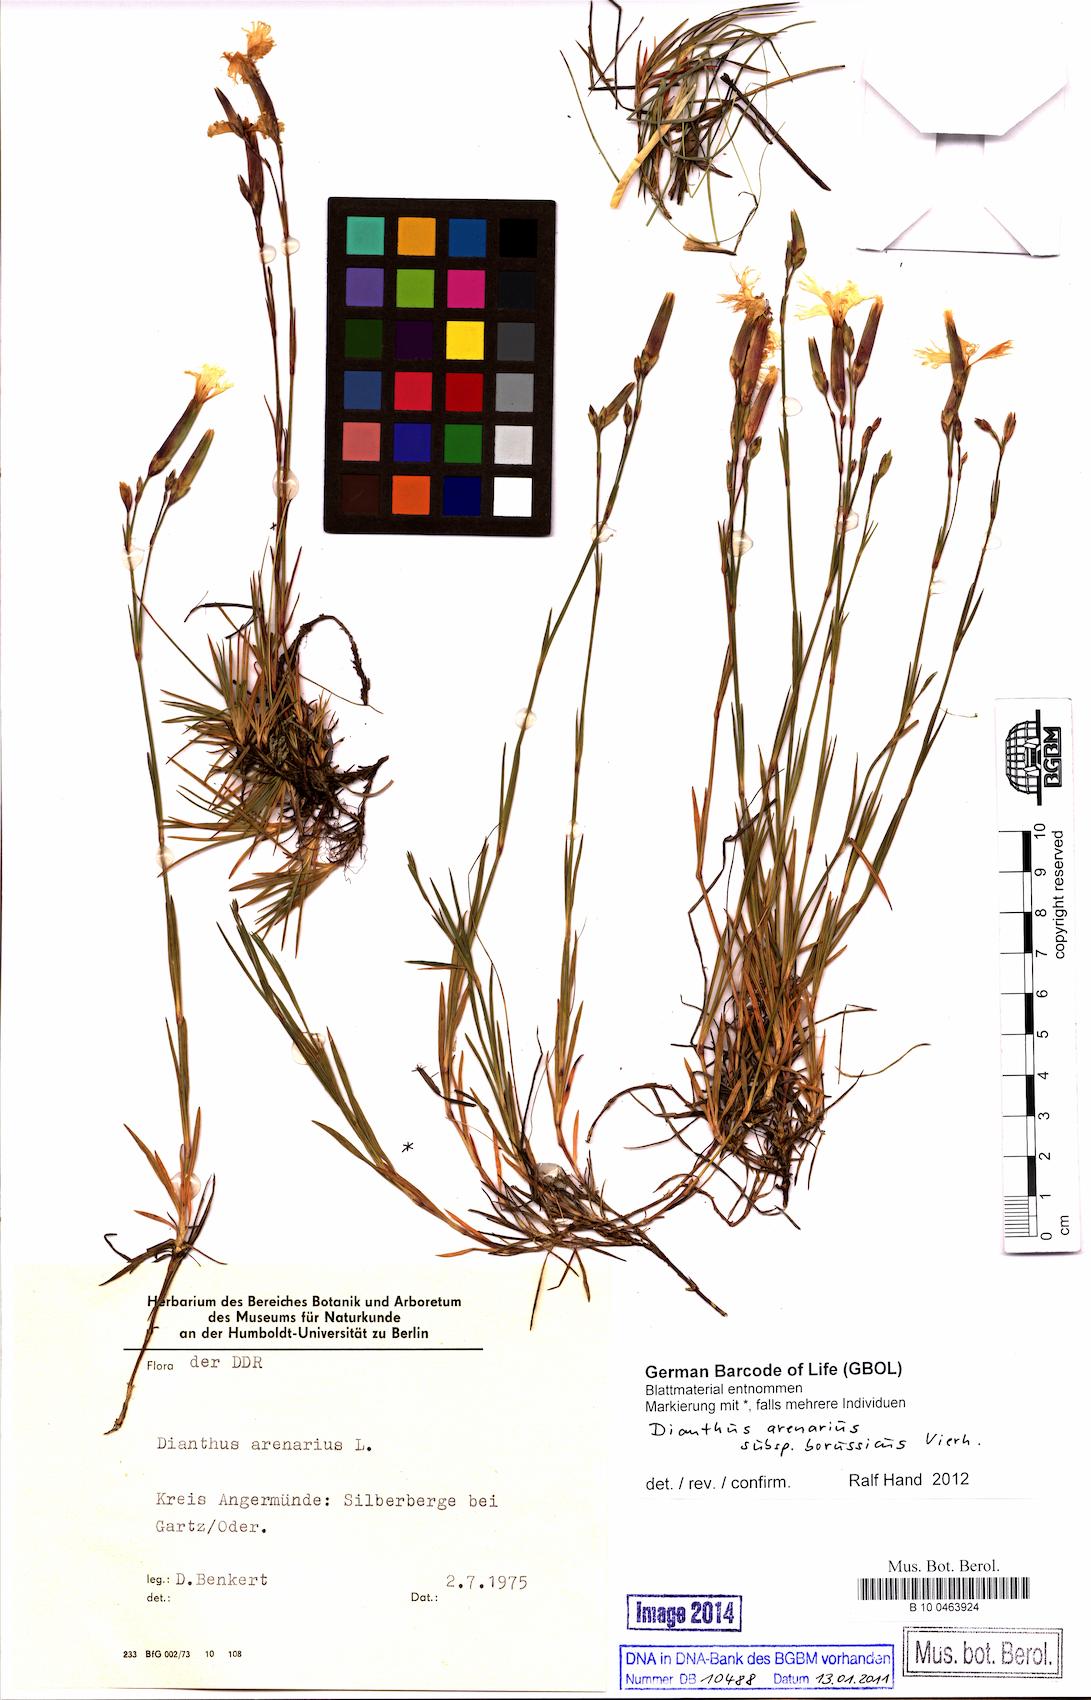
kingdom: Plantae
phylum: Tracheophyta
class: Magnoliopsida
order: Caryophyllales
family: Caryophyllaceae
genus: Dianthus
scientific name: Dianthus arenarius
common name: Stone pink
